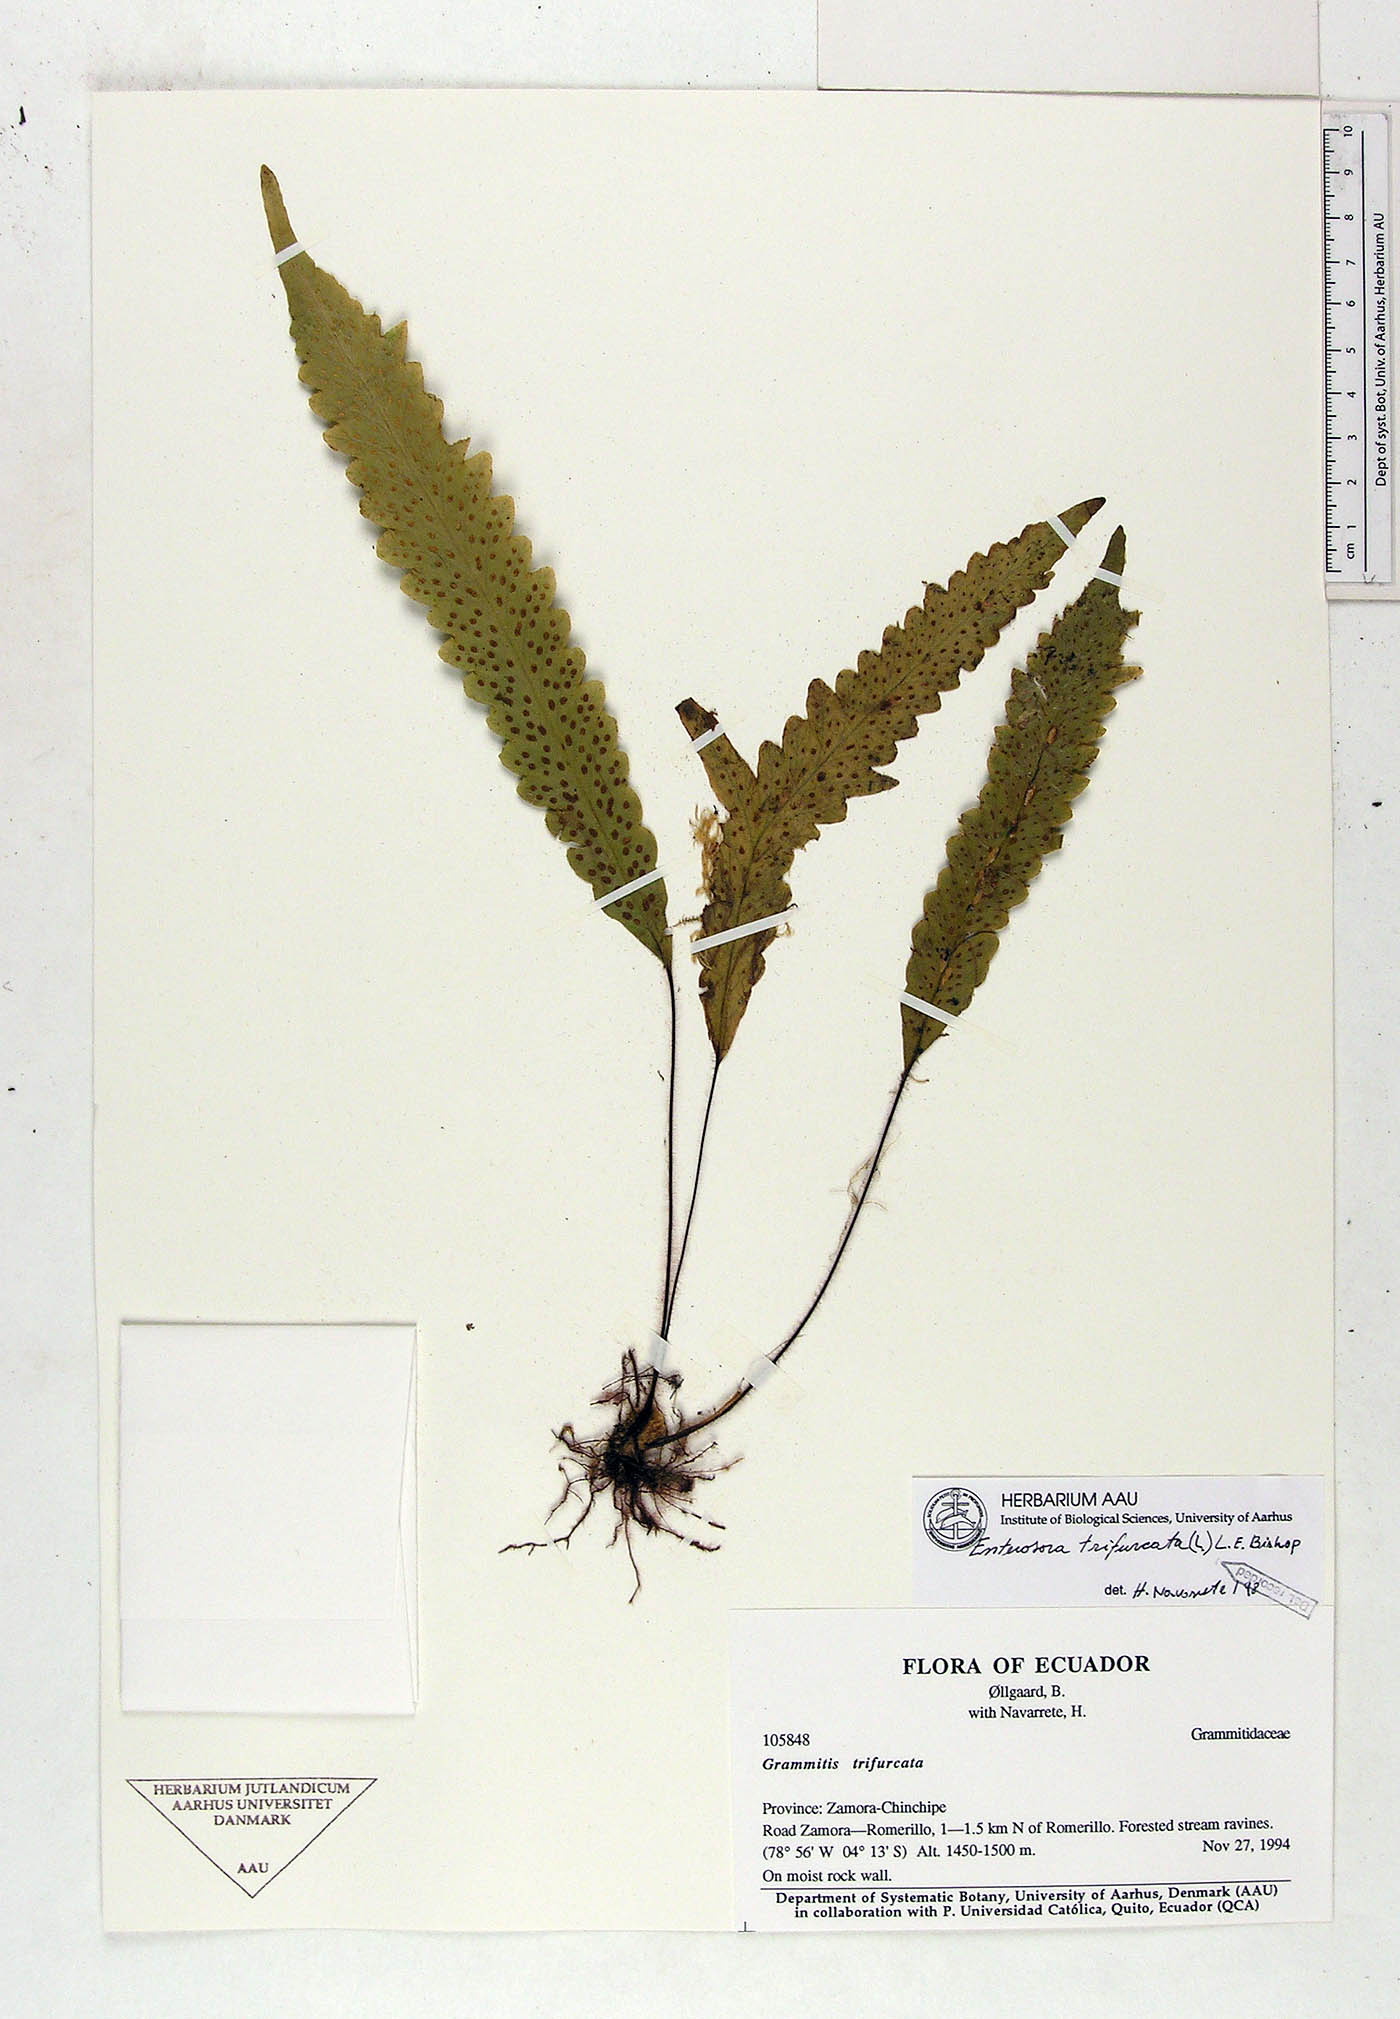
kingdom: Plantae
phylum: Tracheophyta
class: Polypodiopsida
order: Polypodiales
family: Polypodiaceae
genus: Enterosora
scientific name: Enterosora trifurcata
